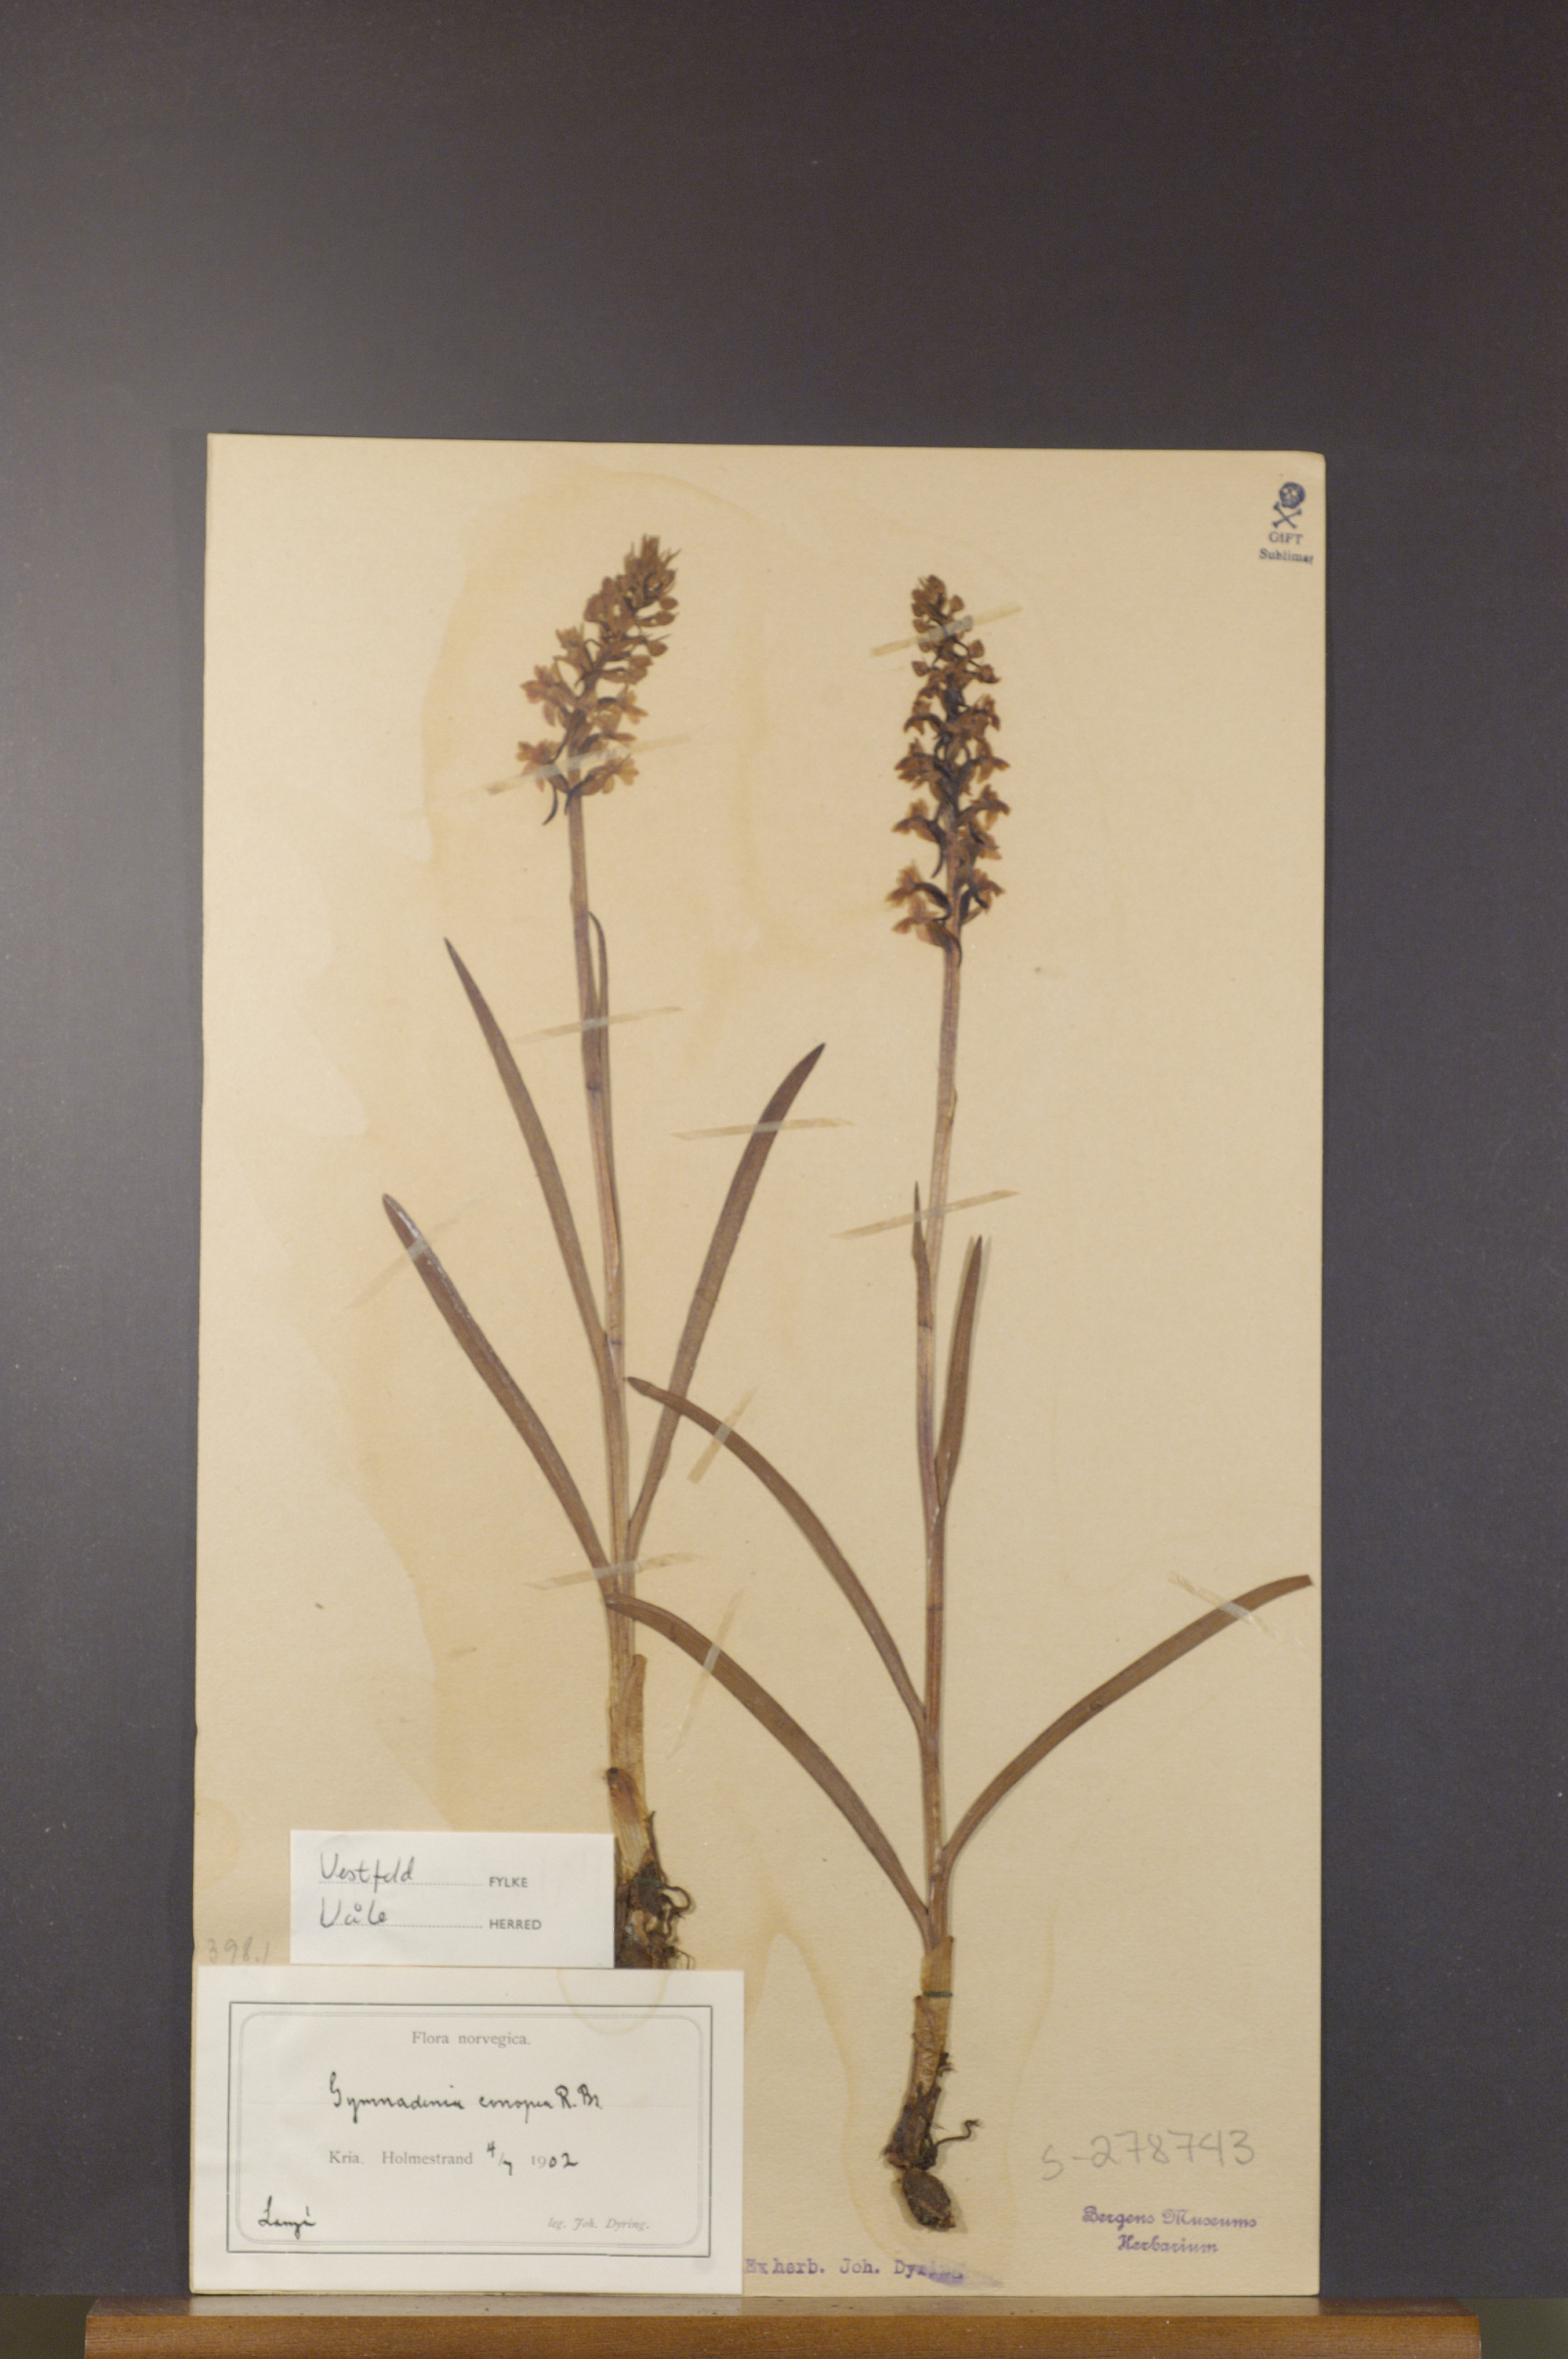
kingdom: Plantae
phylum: Tracheophyta
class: Liliopsida
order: Asparagales
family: Orchidaceae
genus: Gymnadenia
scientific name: Gymnadenia conopsea
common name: Fragrant orchid
